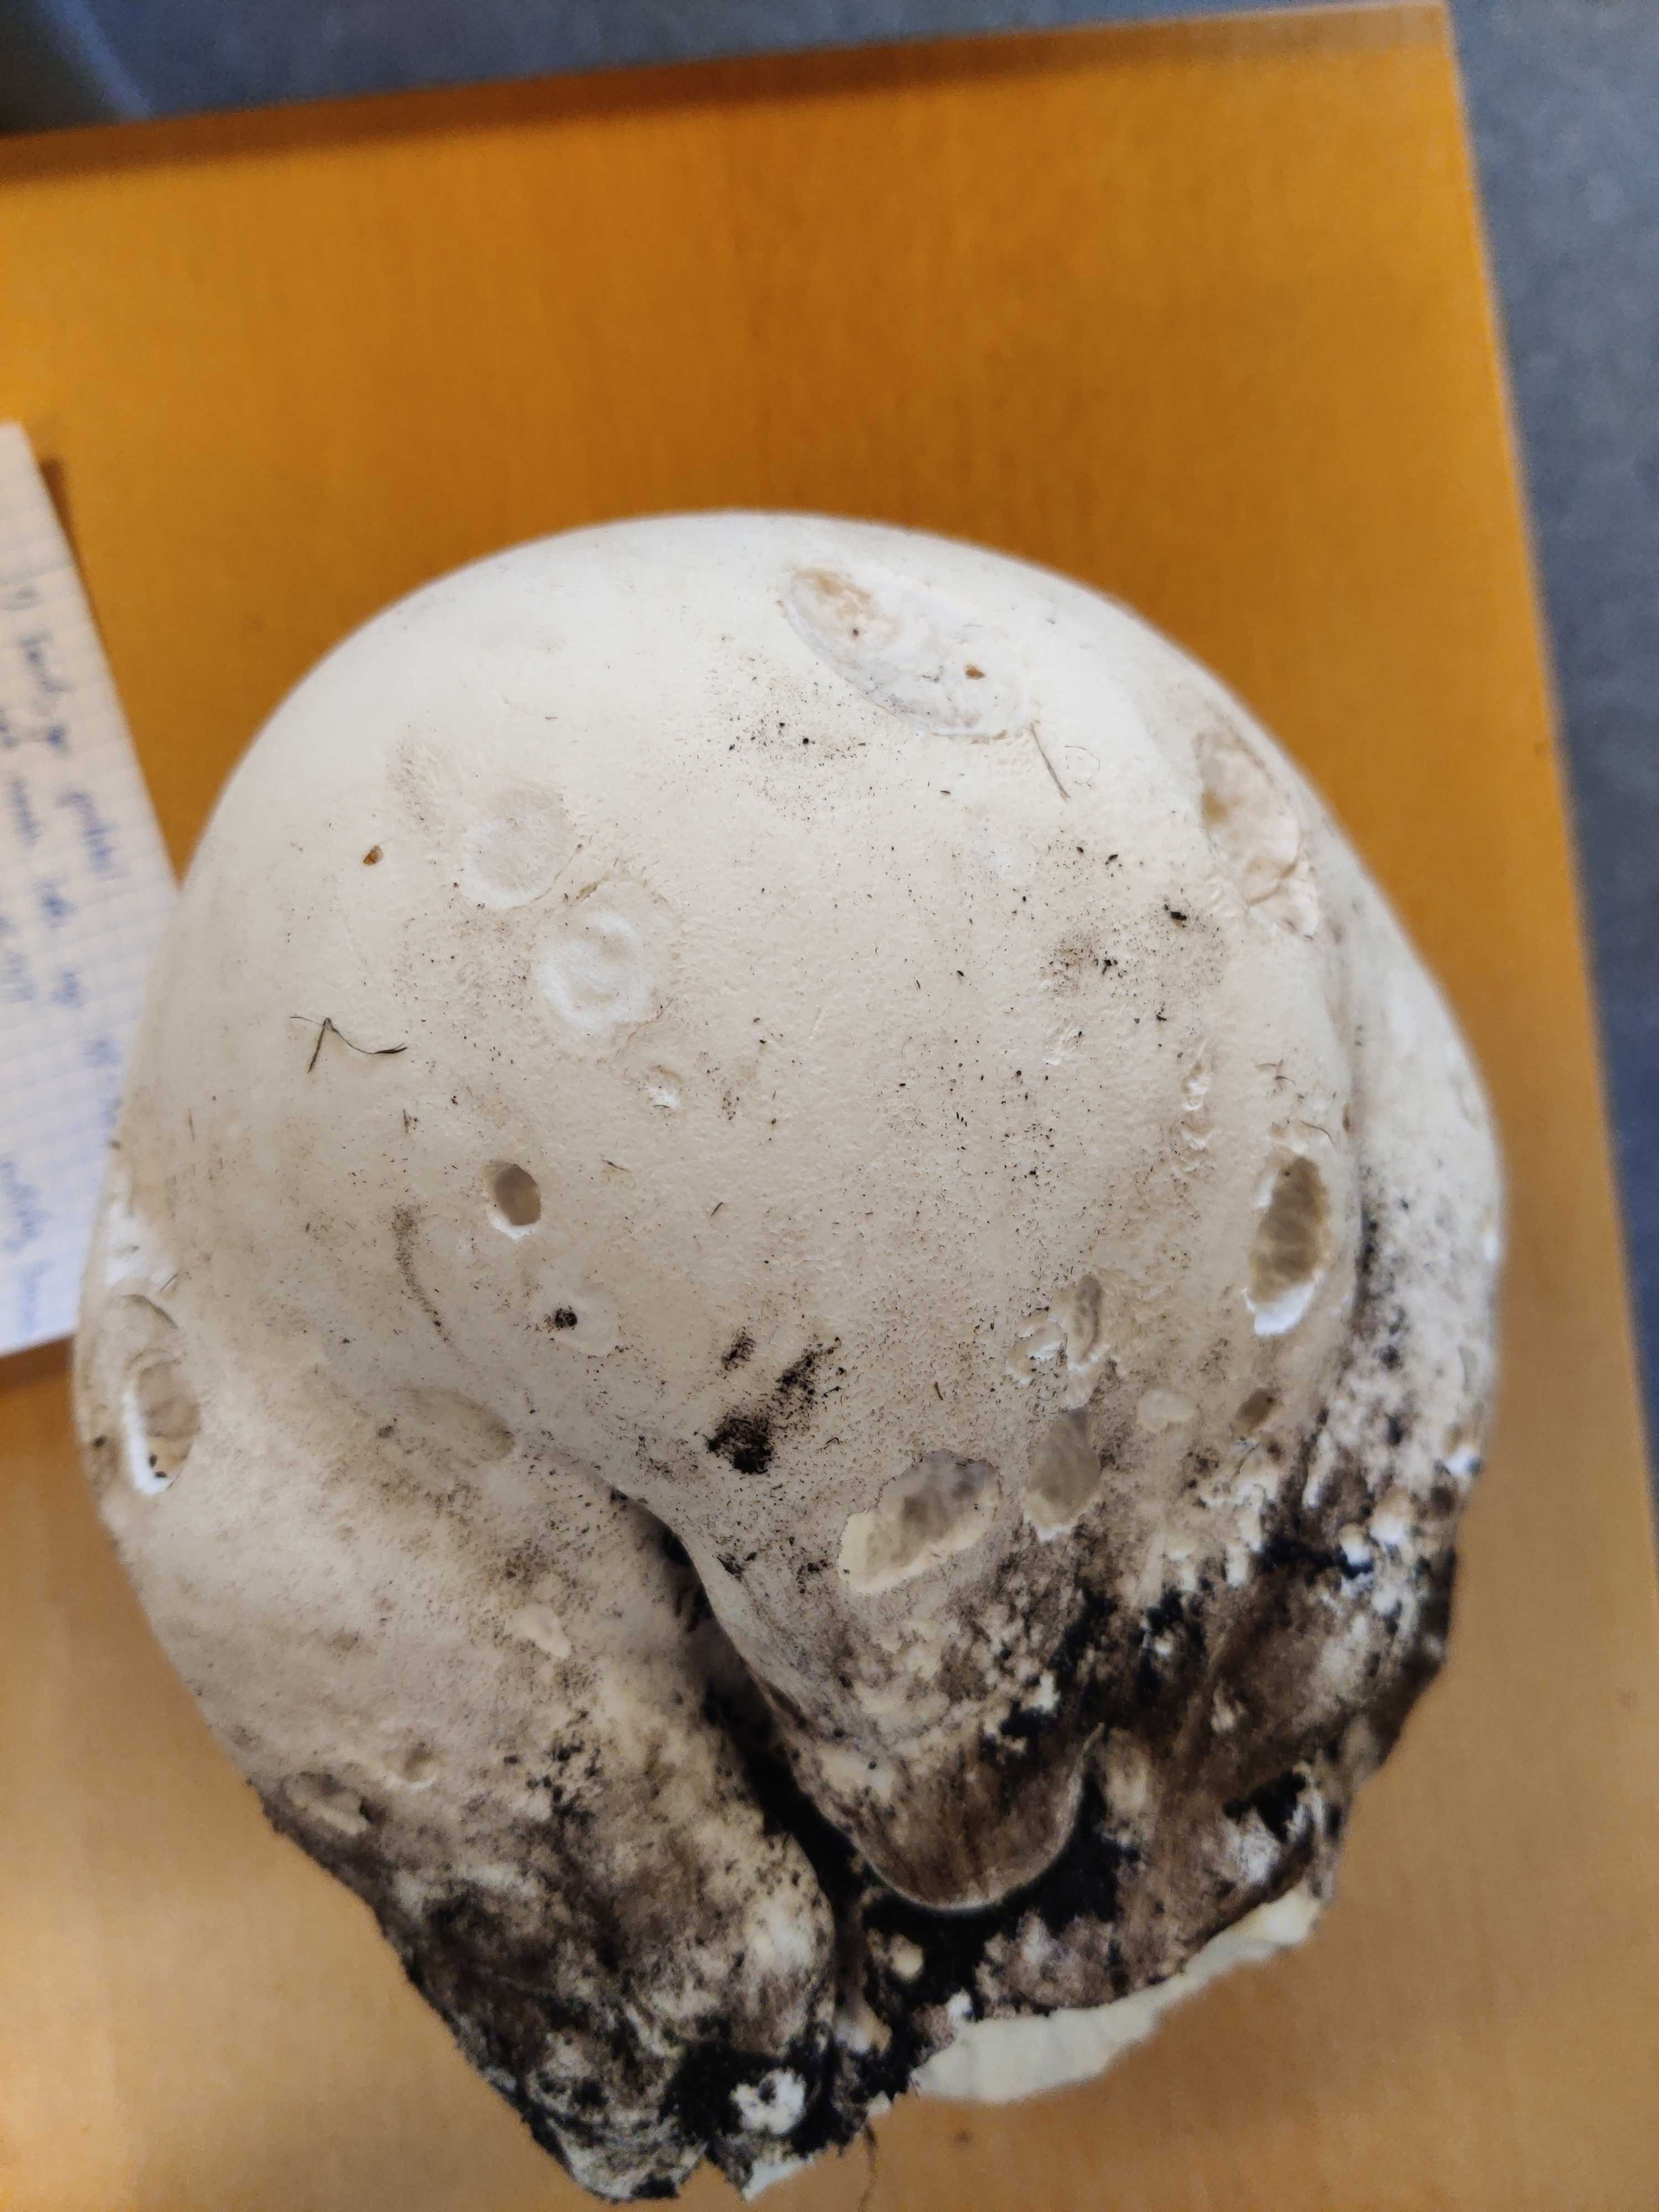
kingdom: Fungi
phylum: Basidiomycota
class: Agaricomycetes
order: Agaricales
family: Lycoperdaceae
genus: Calvatia
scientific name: Calvatia gigantea
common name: kæmpestøvbold
